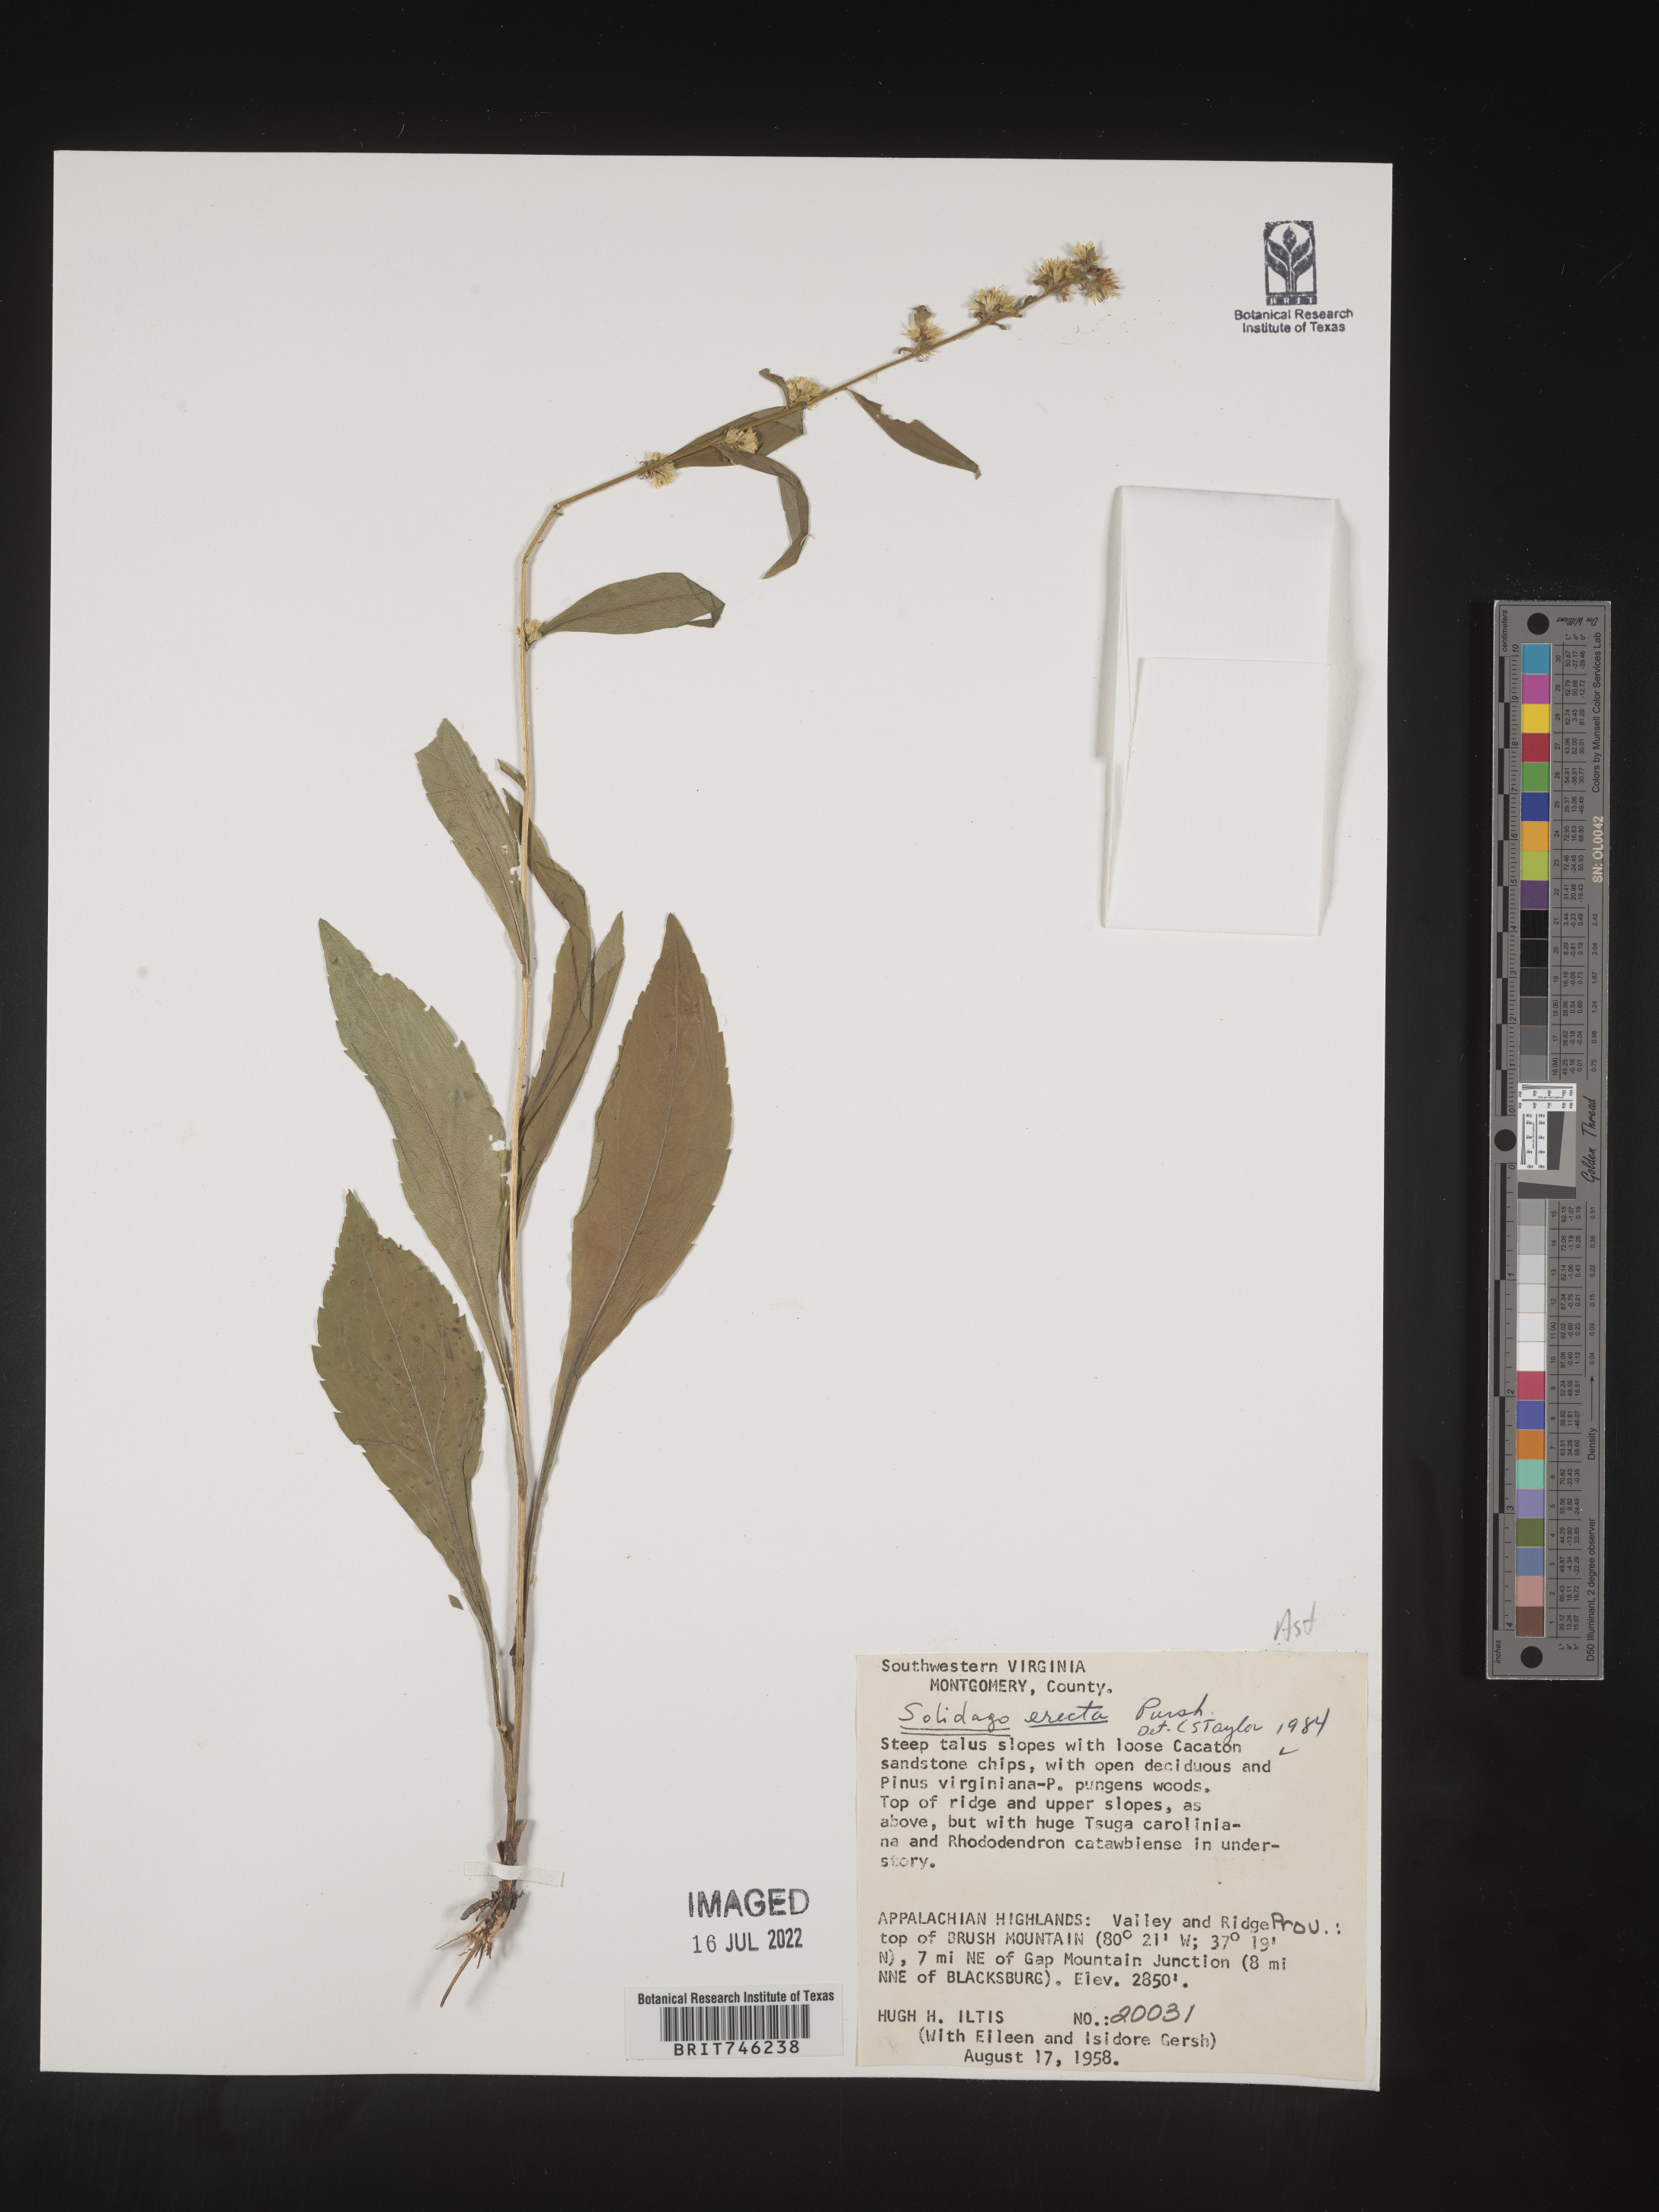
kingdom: Plantae
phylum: Tracheophyta
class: Magnoliopsida
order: Asterales
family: Asteraceae
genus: Solidago
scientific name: Solidago erecta
